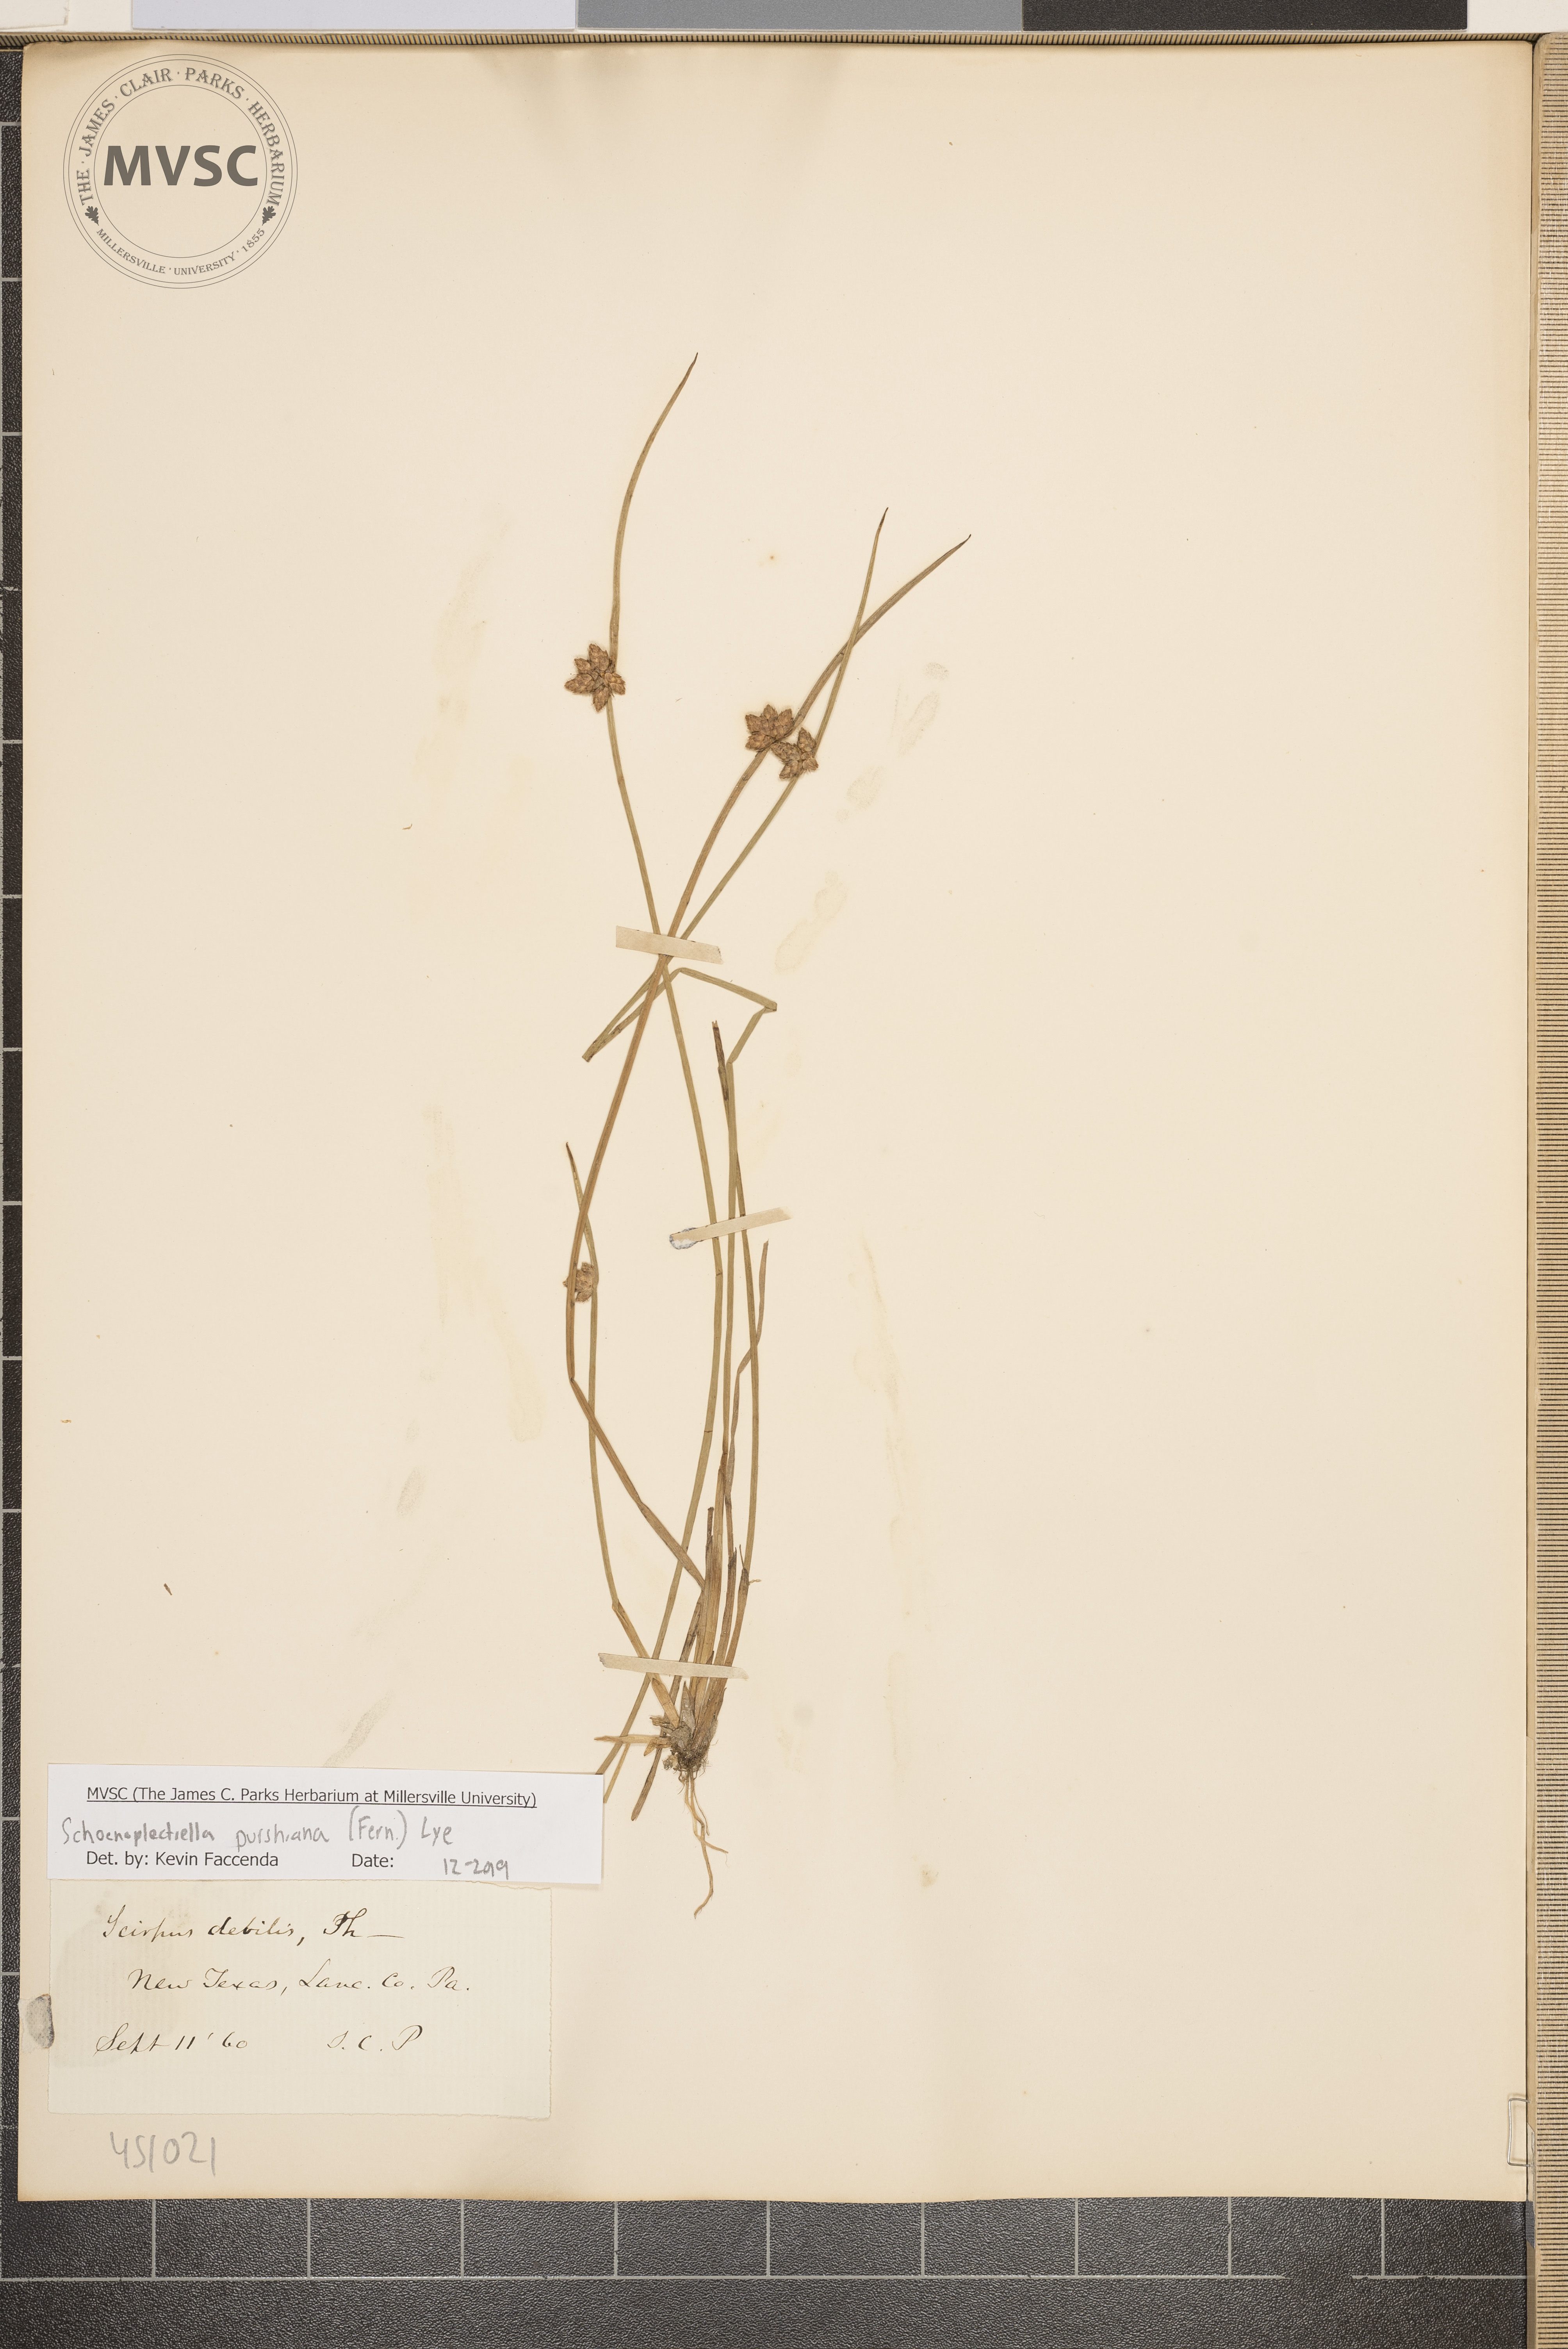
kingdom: Plantae
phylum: Tracheophyta
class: Liliopsida
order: Poales
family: Cyperaceae
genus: Schoenoplectiella
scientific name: Schoenoplectiella purshiana
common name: Weak-stalked bulrush
